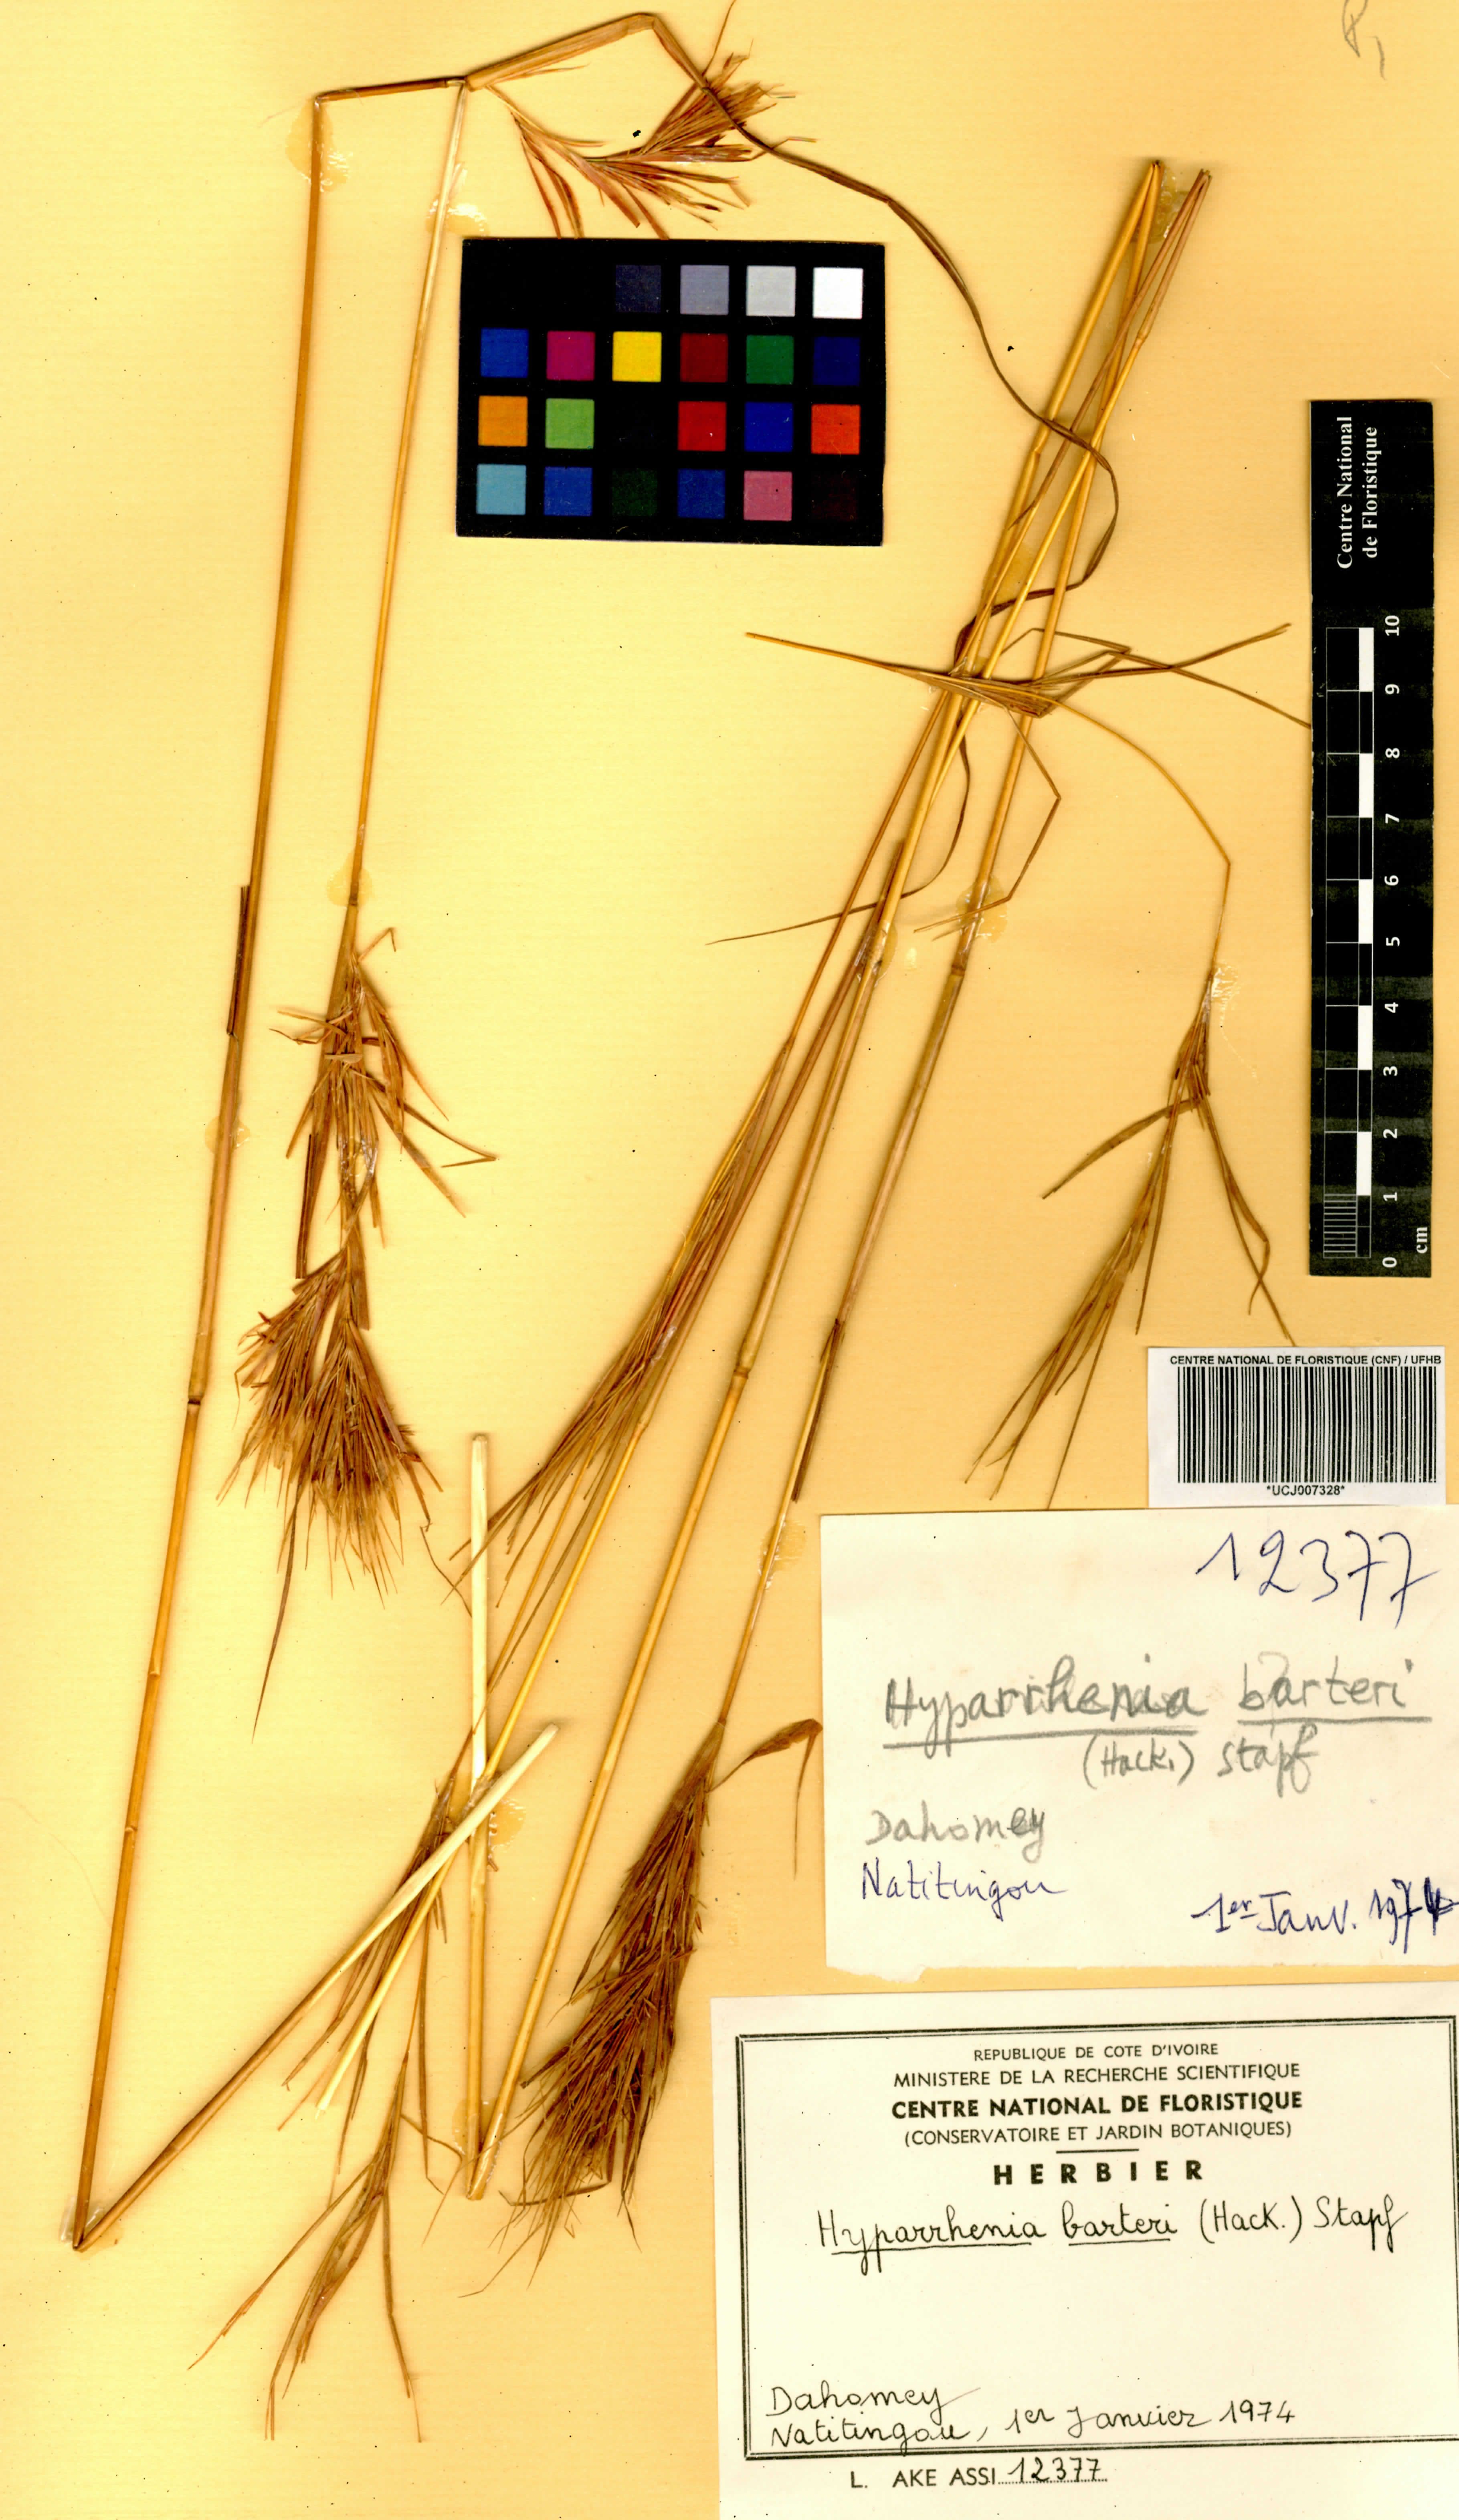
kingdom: Plantae
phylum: Tracheophyta
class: Liliopsida
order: Poales
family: Poaceae
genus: Hyparrhenia
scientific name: Hyparrhenia barteri
